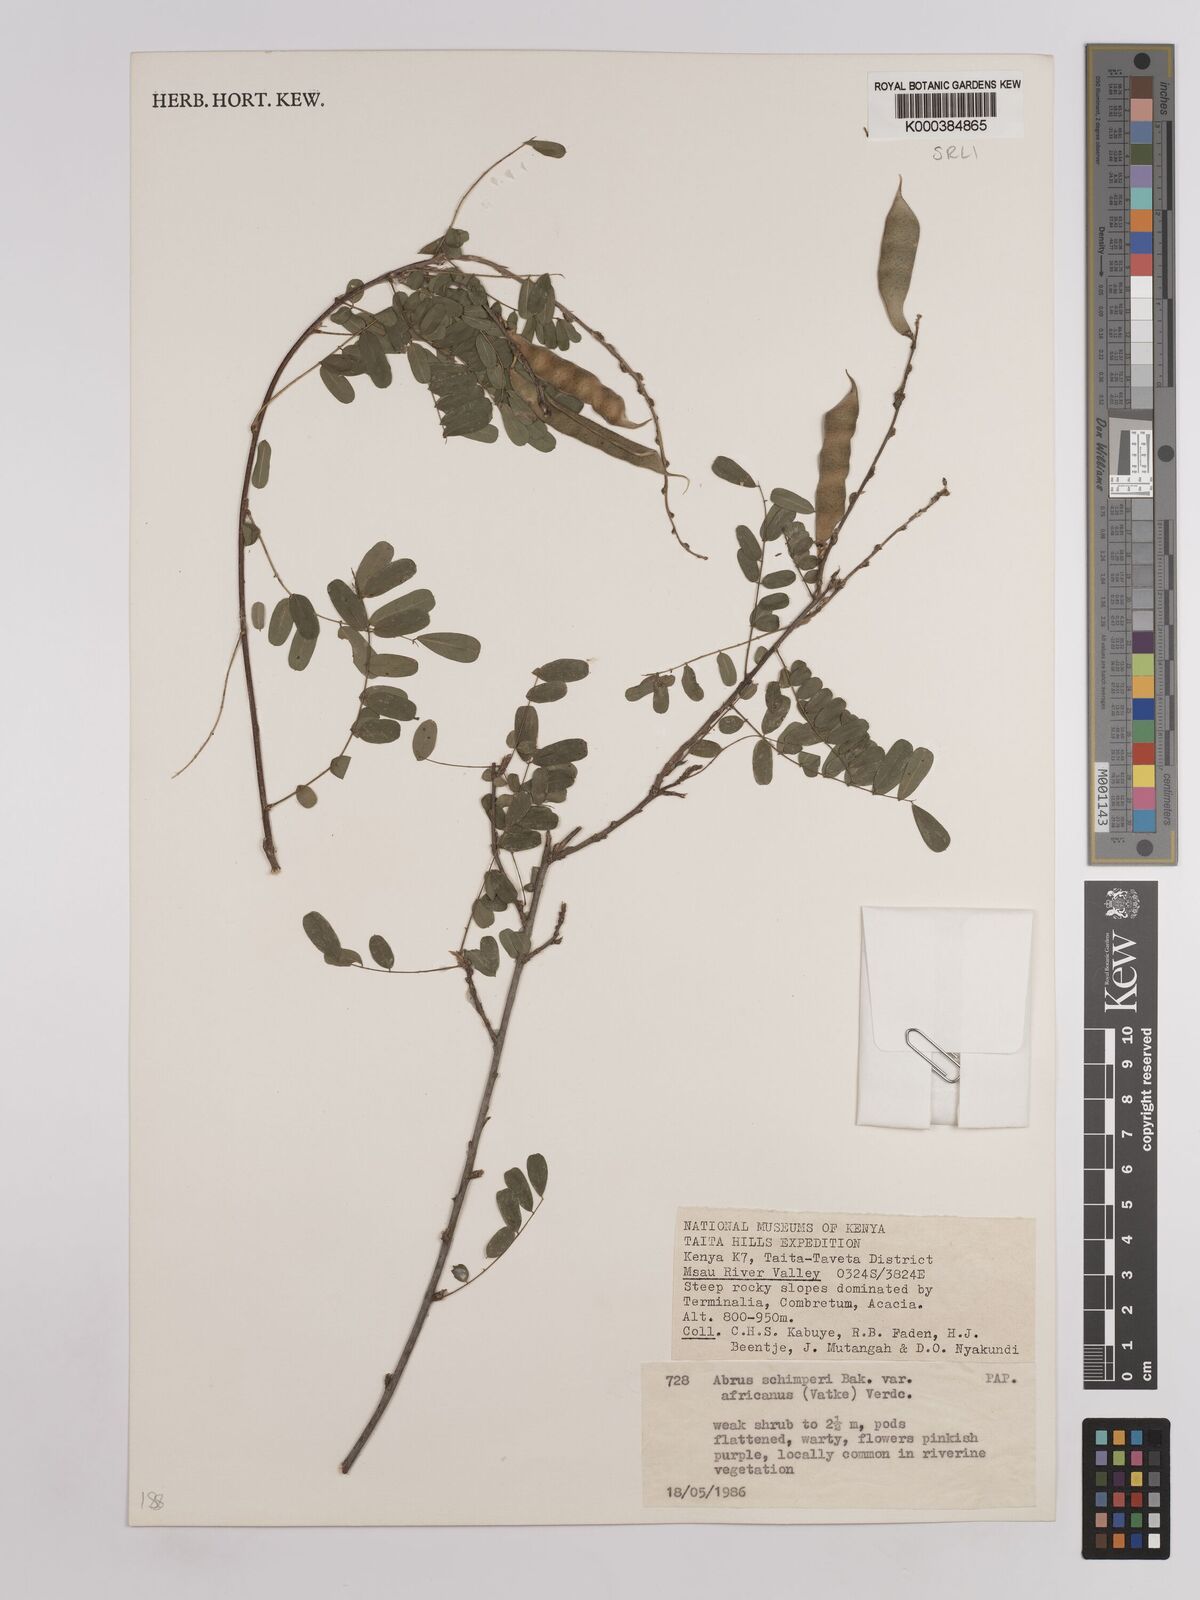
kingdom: Plantae
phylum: Tracheophyta
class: Magnoliopsida
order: Fabales
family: Fabaceae
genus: Abrus
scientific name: Abrus fruticulosus
